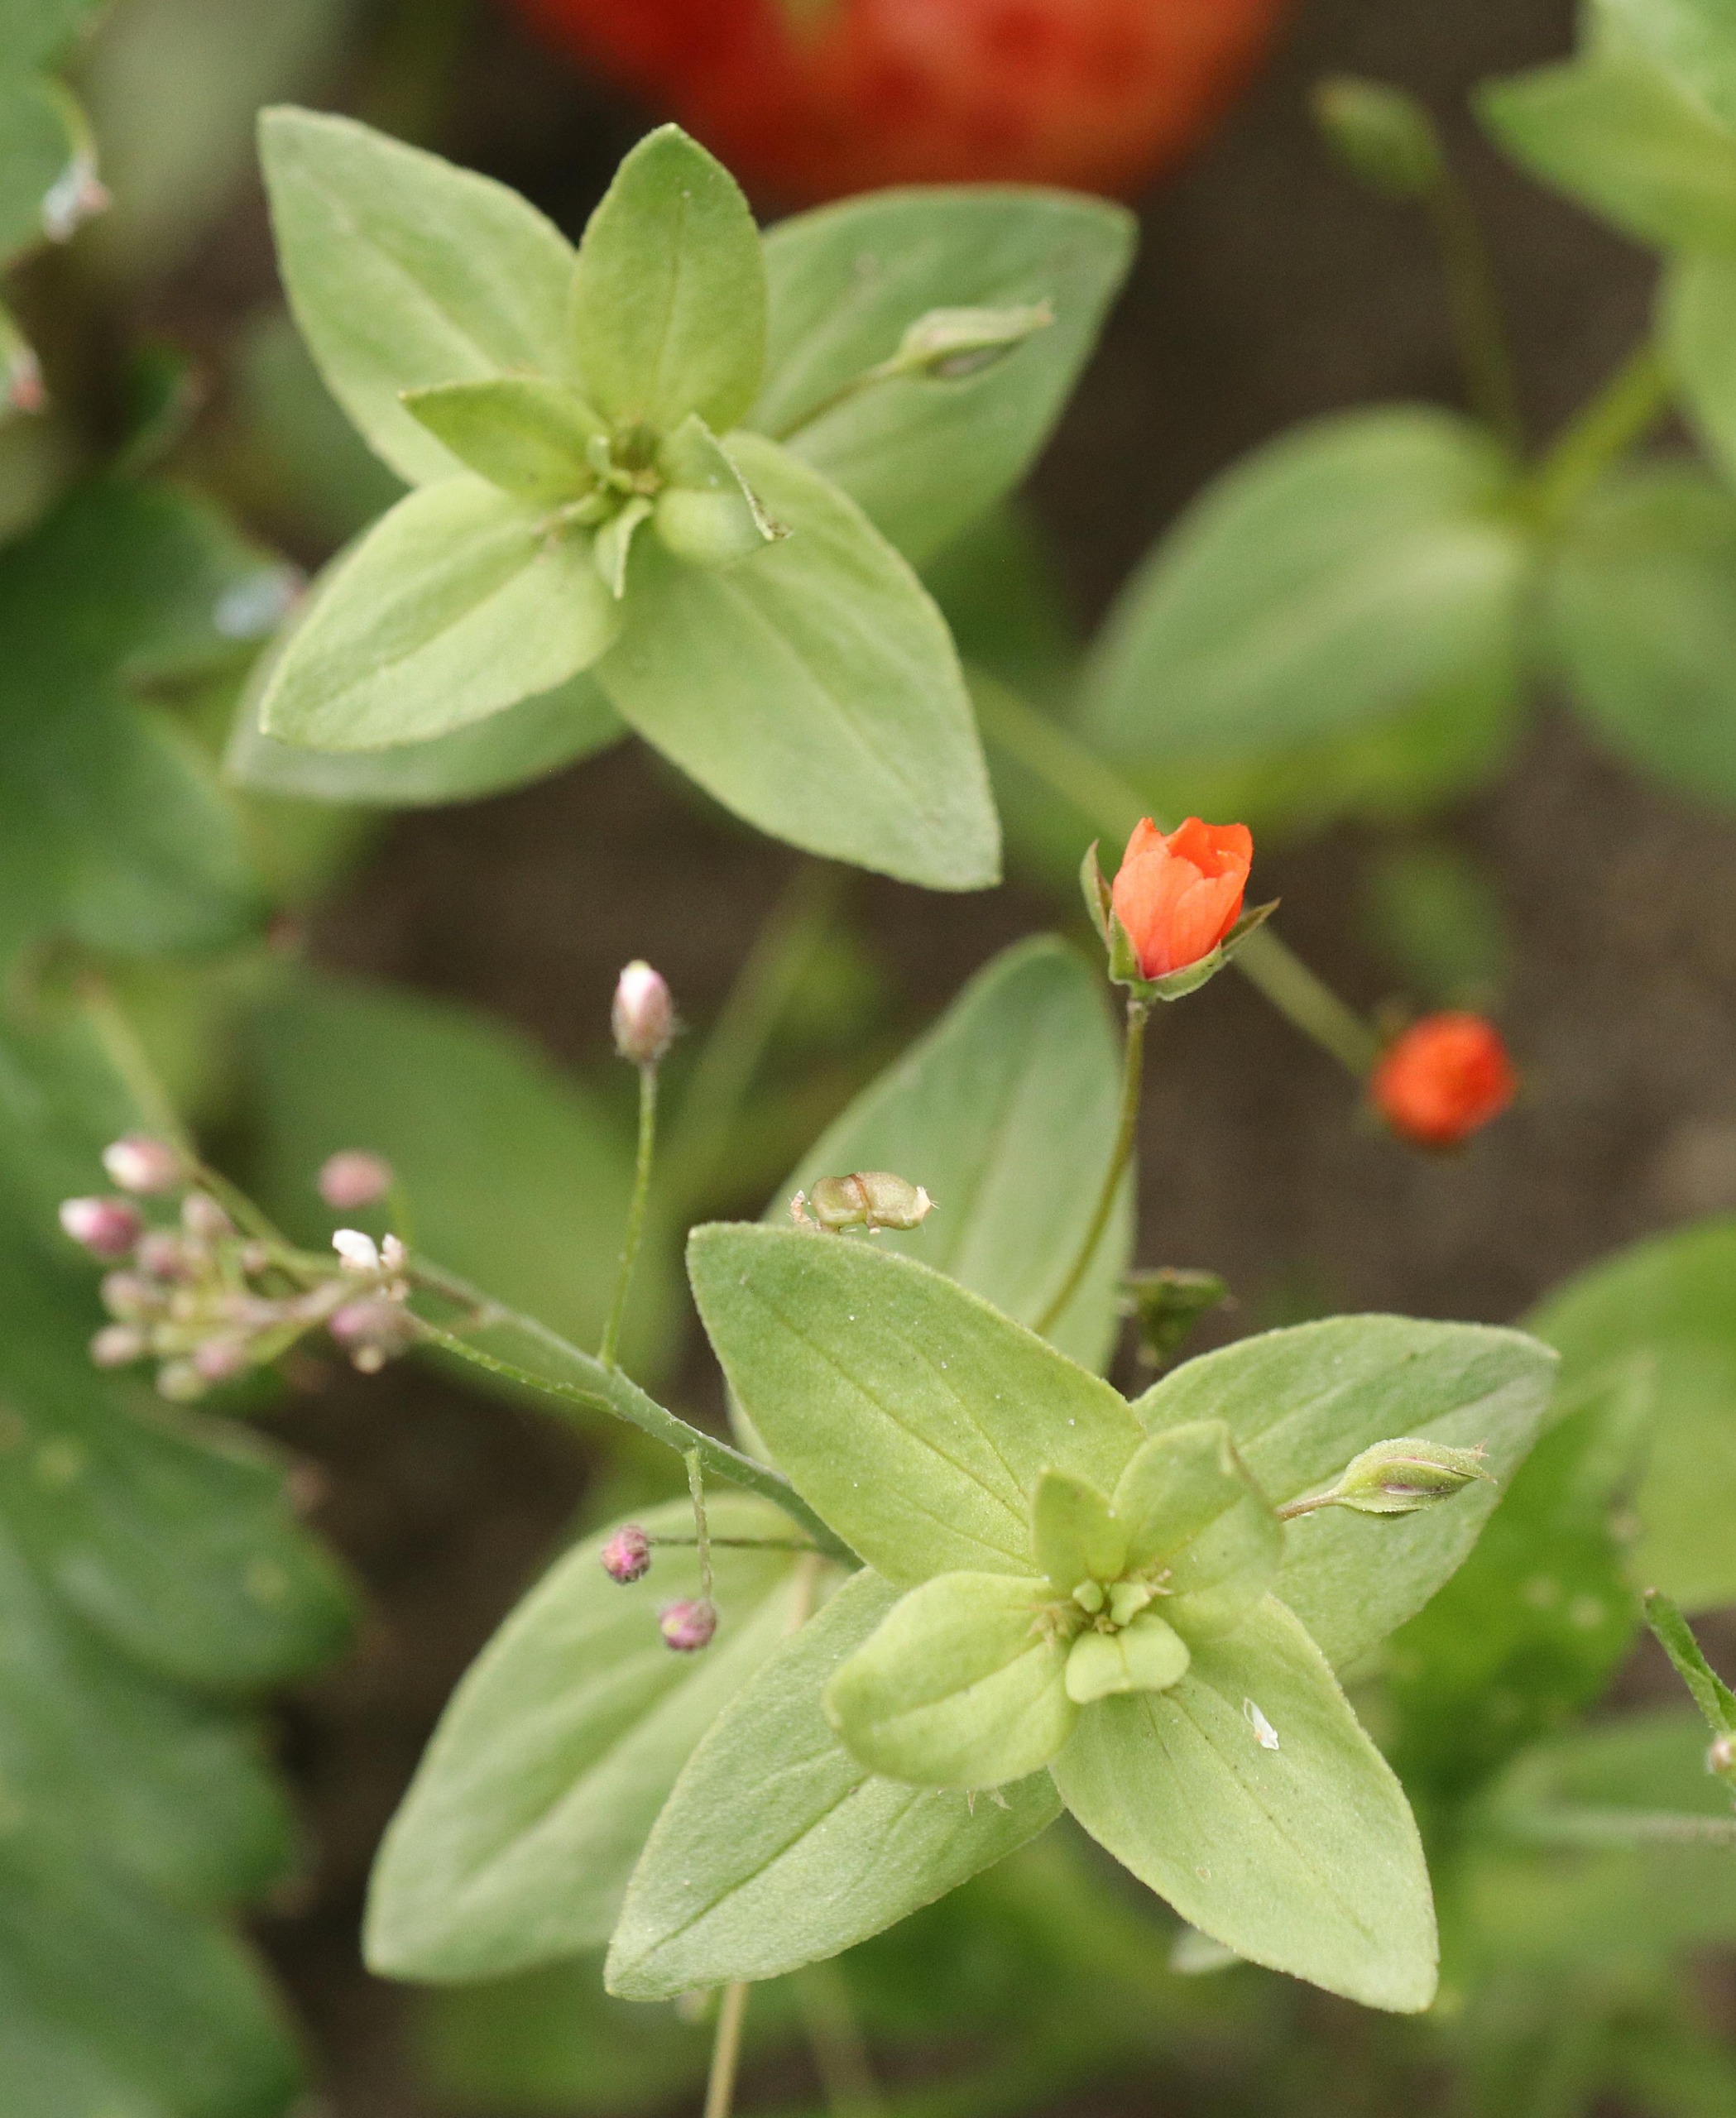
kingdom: Plantae
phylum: Tracheophyta
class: Magnoliopsida
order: Ericales
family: Primulaceae
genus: Lysimachia
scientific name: Lysimachia arvensis
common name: Rød arve
